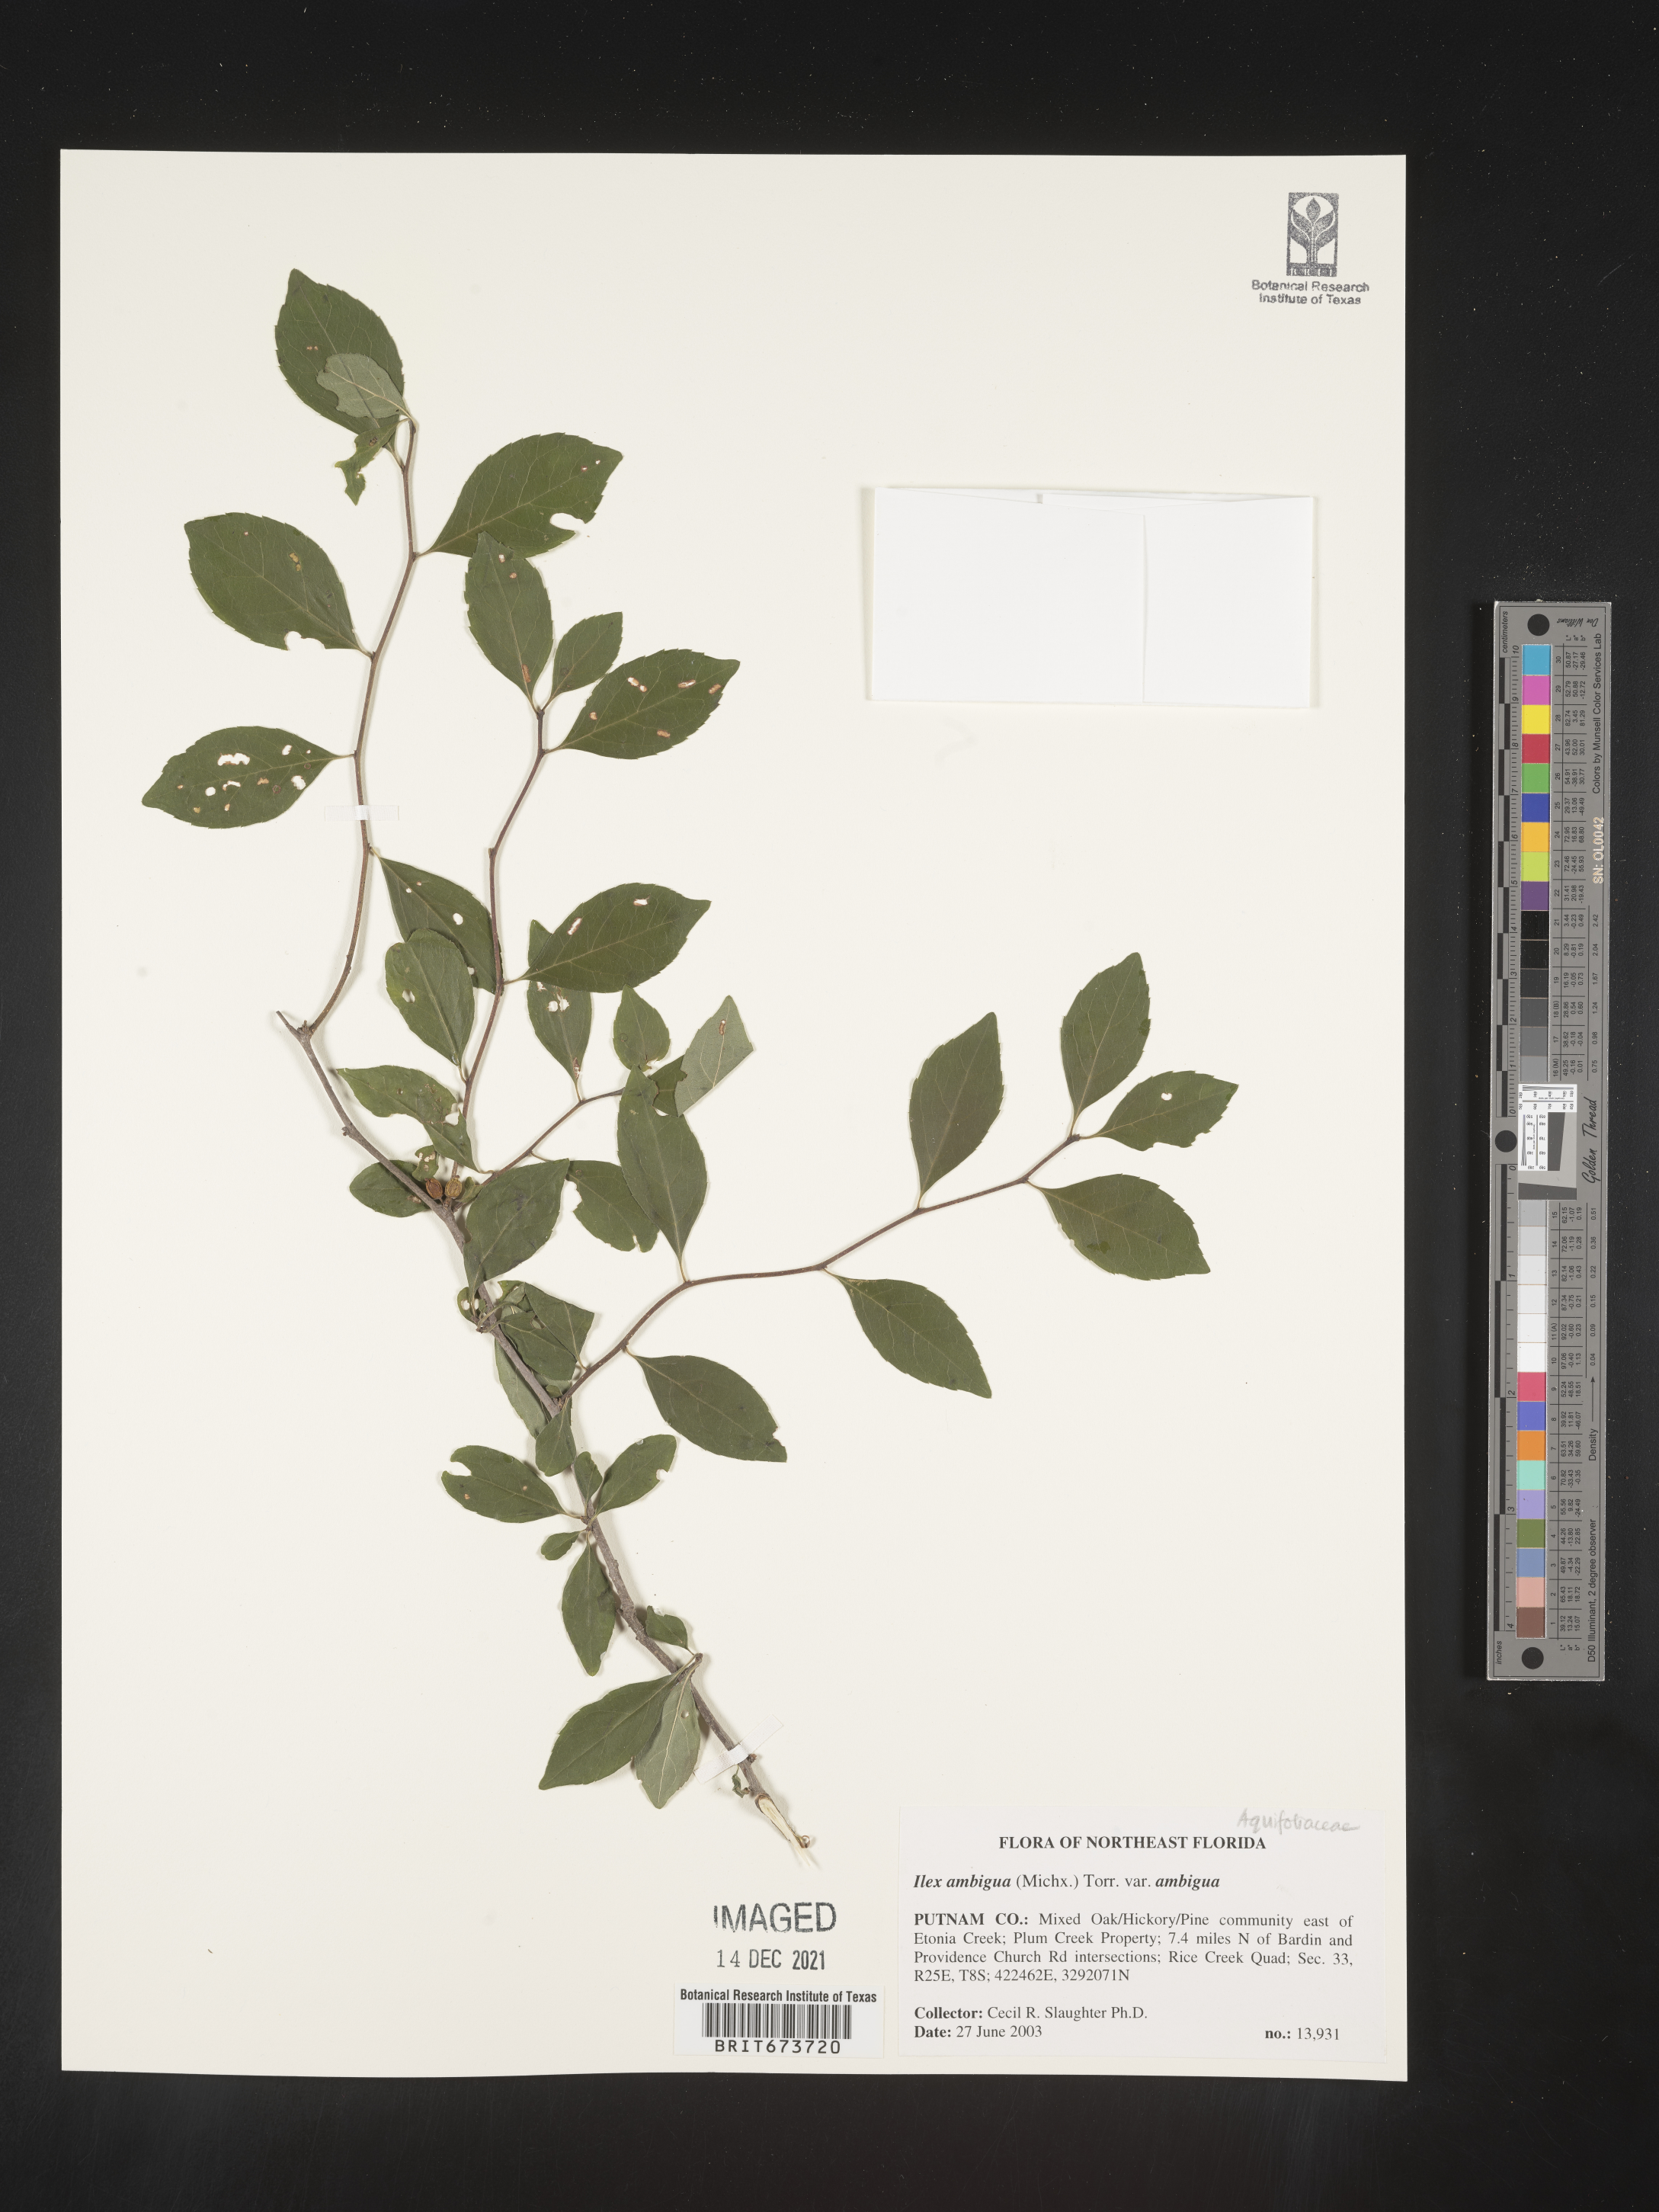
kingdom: Plantae
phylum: Tracheophyta
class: Magnoliopsida
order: Aquifoliales
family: Aquifoliaceae
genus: Ilex
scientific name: Ilex ambigua
